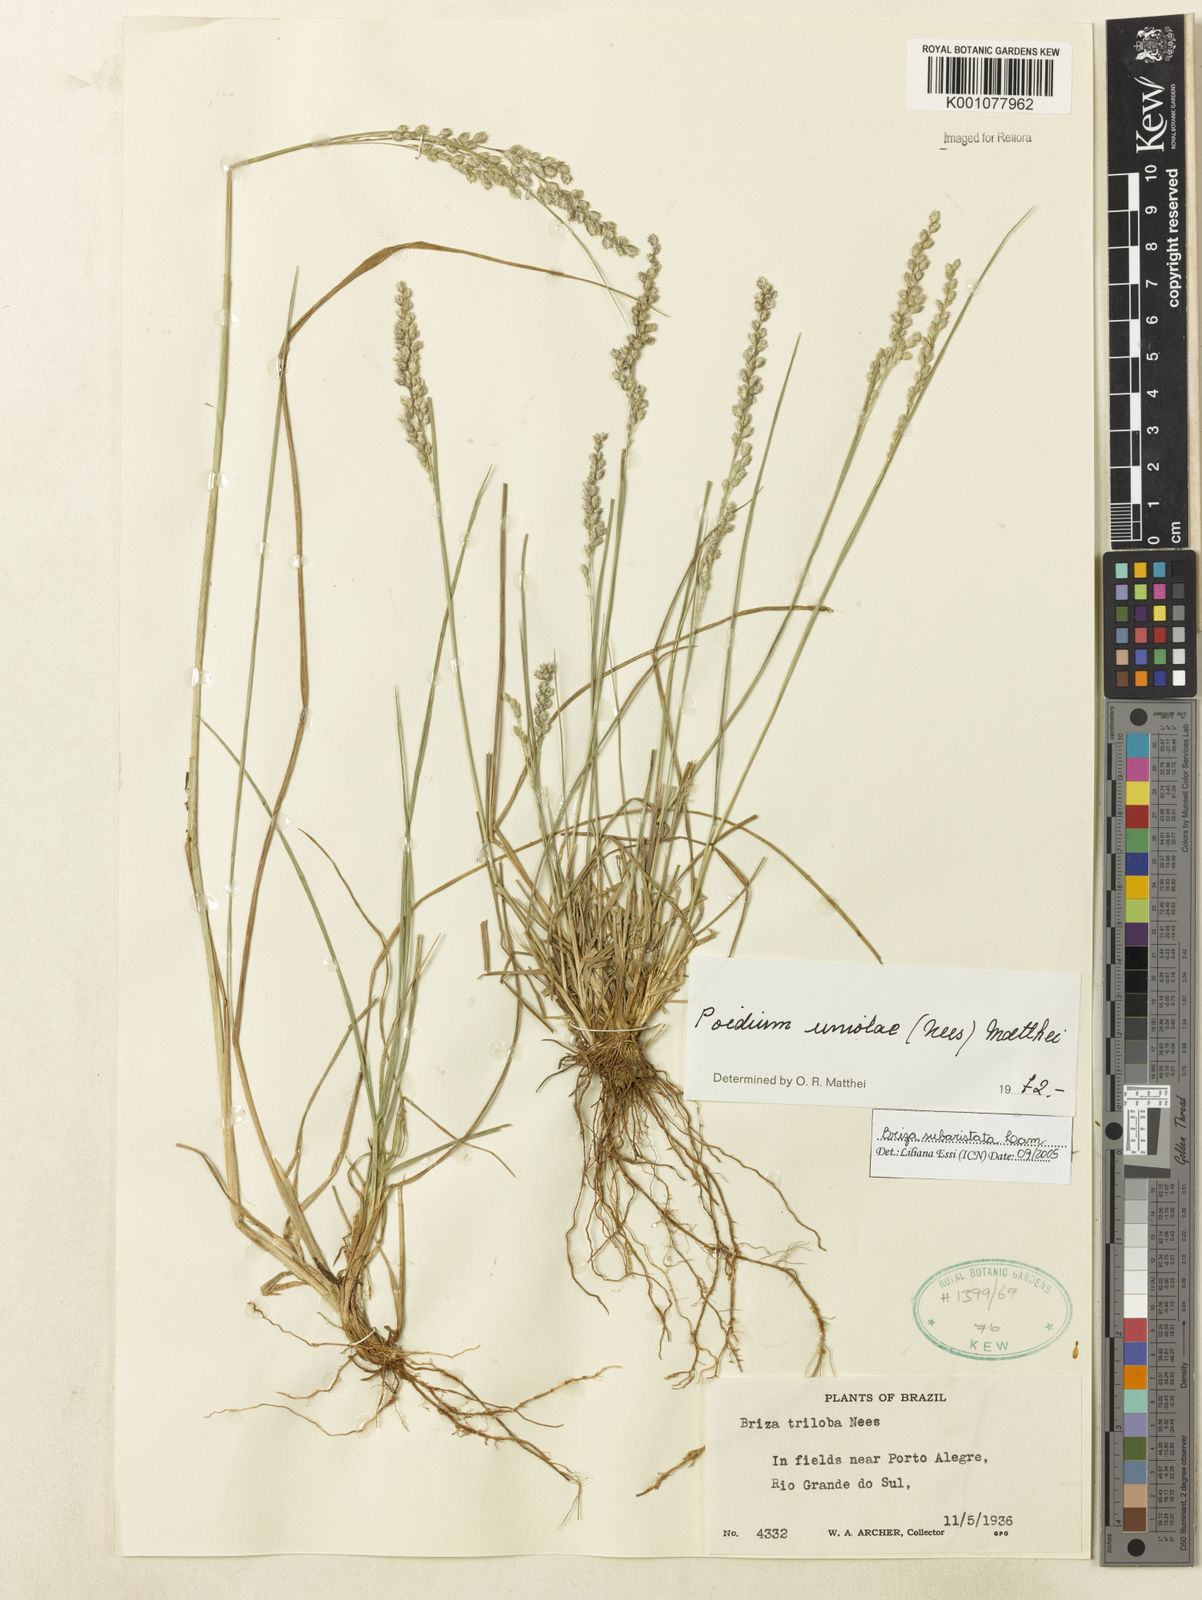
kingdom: Plantae
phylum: Tracheophyta
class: Liliopsida
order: Poales
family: Poaceae
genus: Briza
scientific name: Briza
